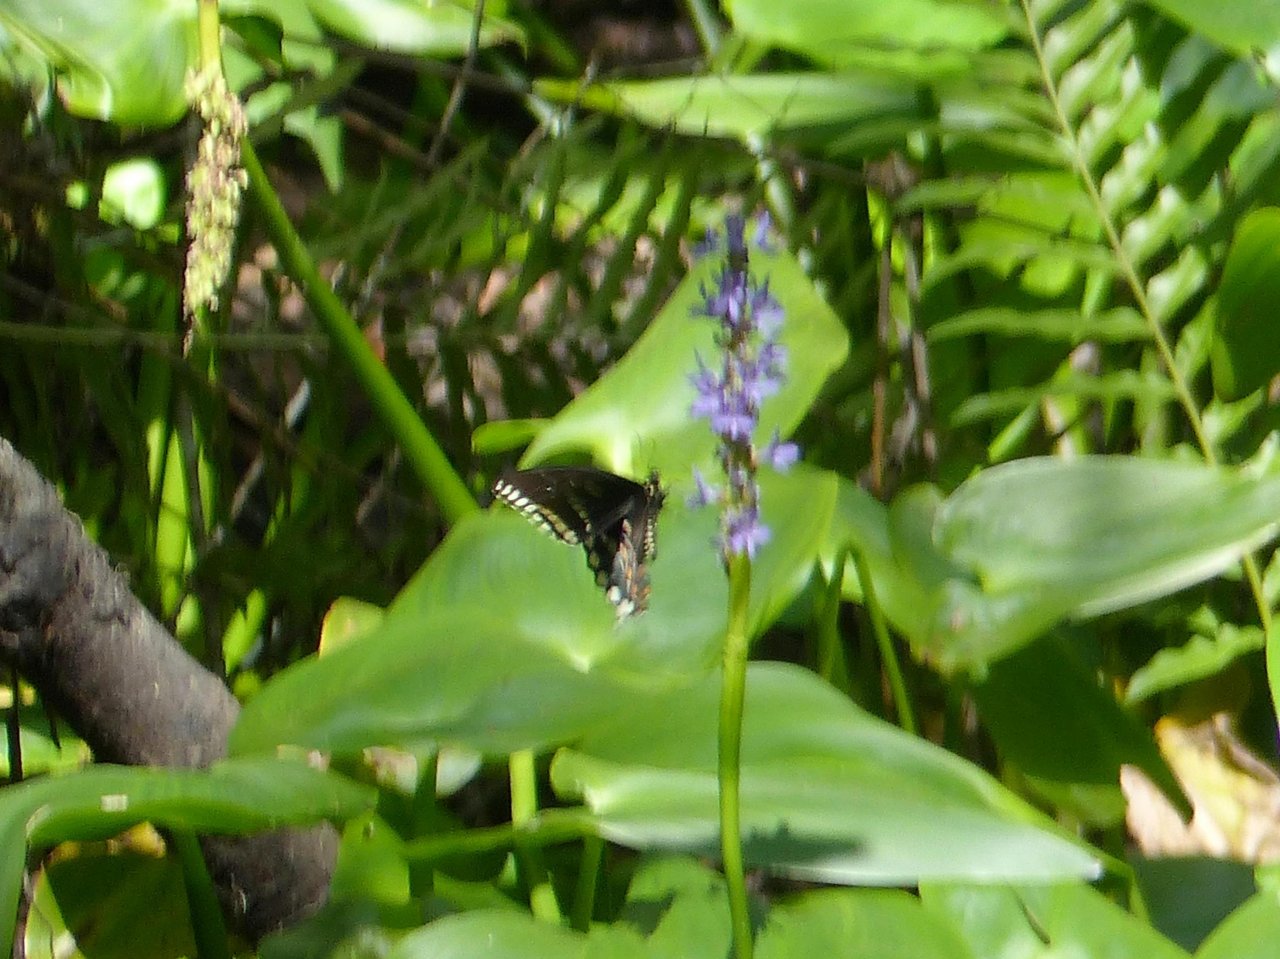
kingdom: Animalia
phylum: Arthropoda
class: Insecta
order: Lepidoptera
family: Papilionidae
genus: Pterourus
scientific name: Pterourus troilus
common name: Spicebush Swallowtail
